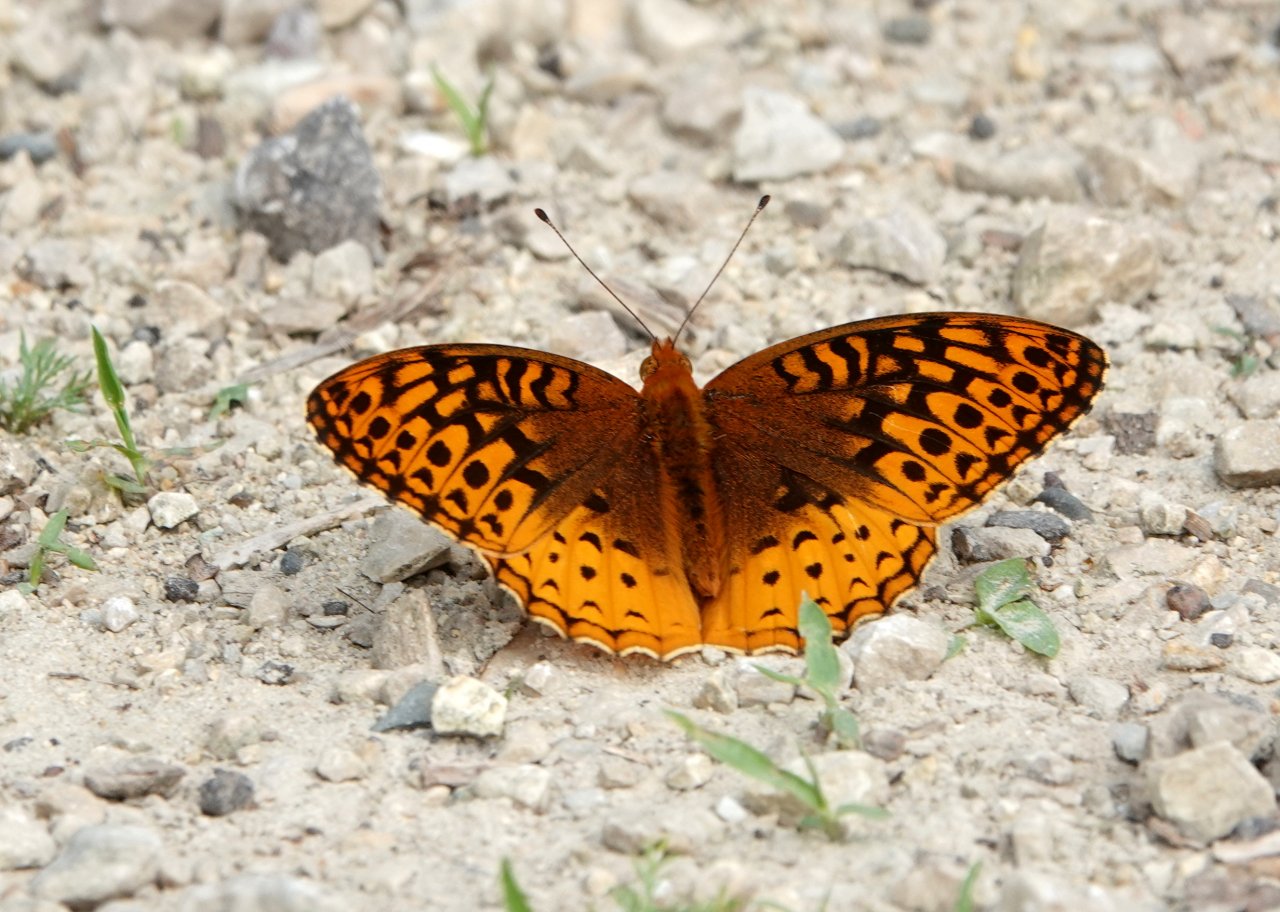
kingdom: Animalia
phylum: Arthropoda
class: Insecta
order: Lepidoptera
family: Nymphalidae
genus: Speyeria
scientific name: Speyeria aphrodite
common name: Aphrodite Fritillary
